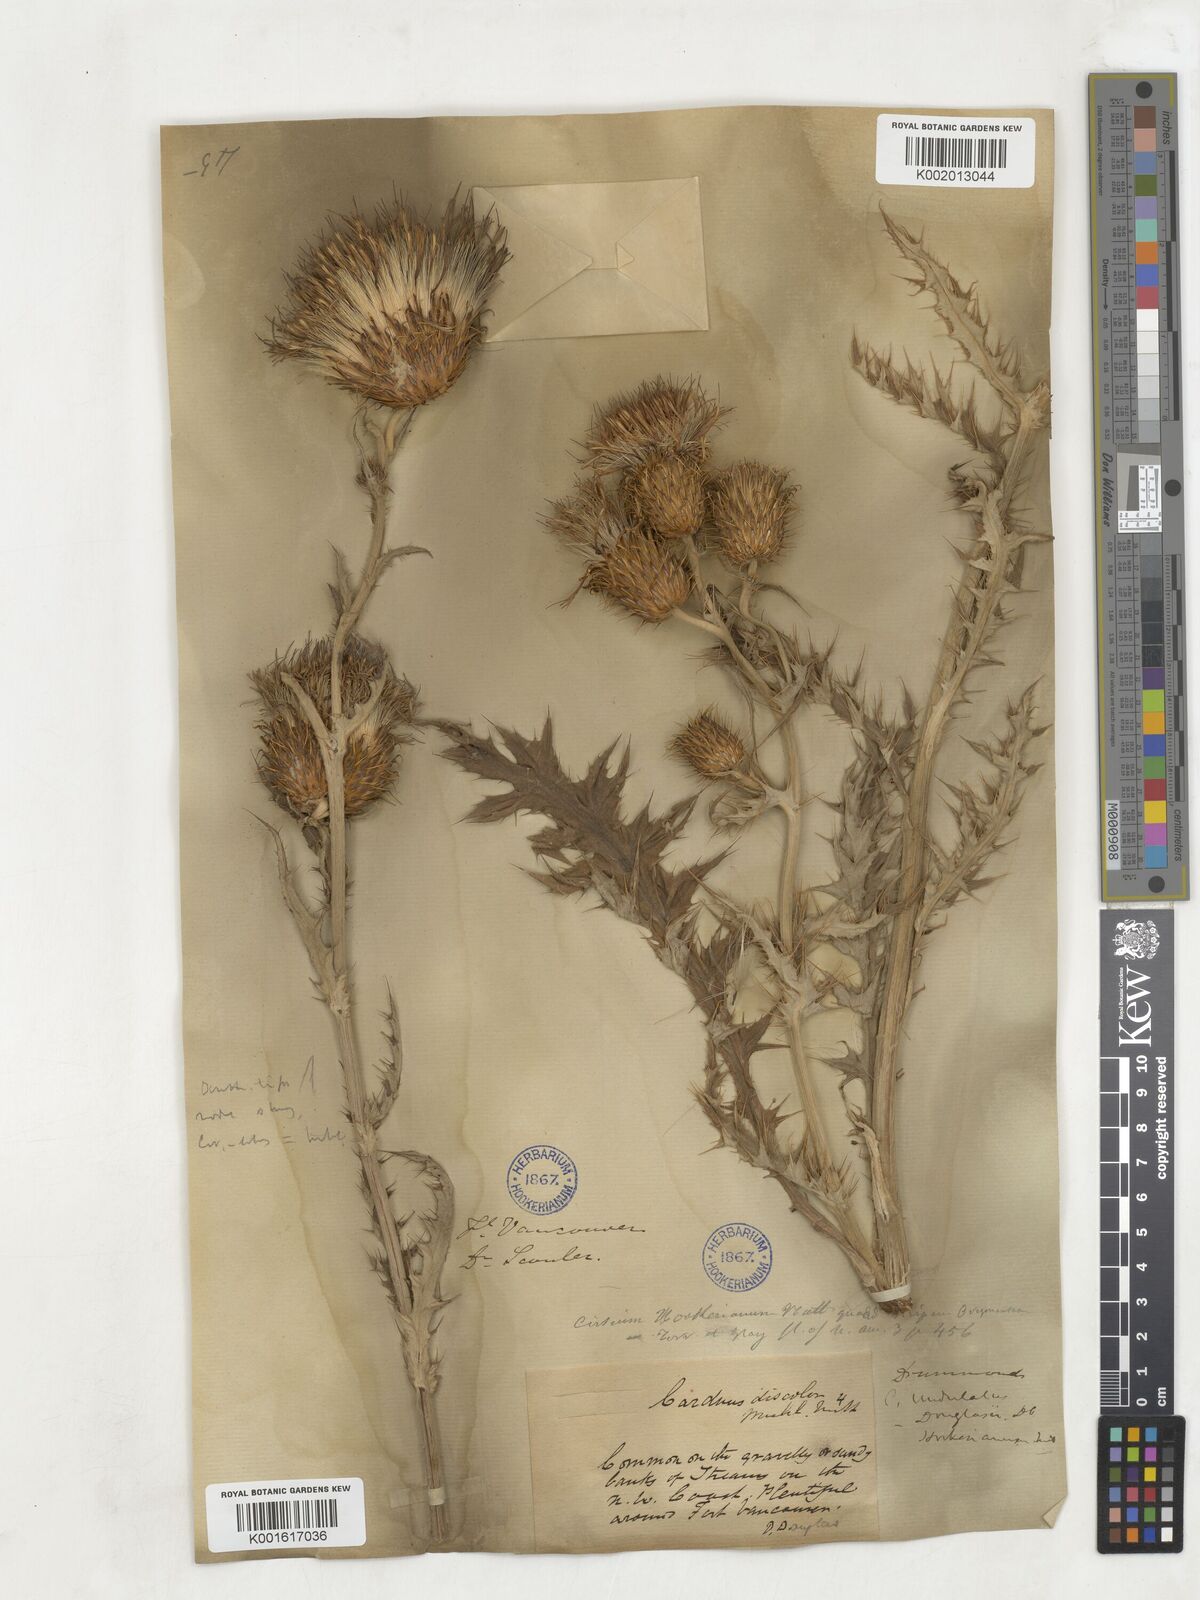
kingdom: Plantae
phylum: Tracheophyta
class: Magnoliopsida
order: Asterales
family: Asteraceae
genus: Lophiolepis
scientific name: Lophiolepis spathulata
